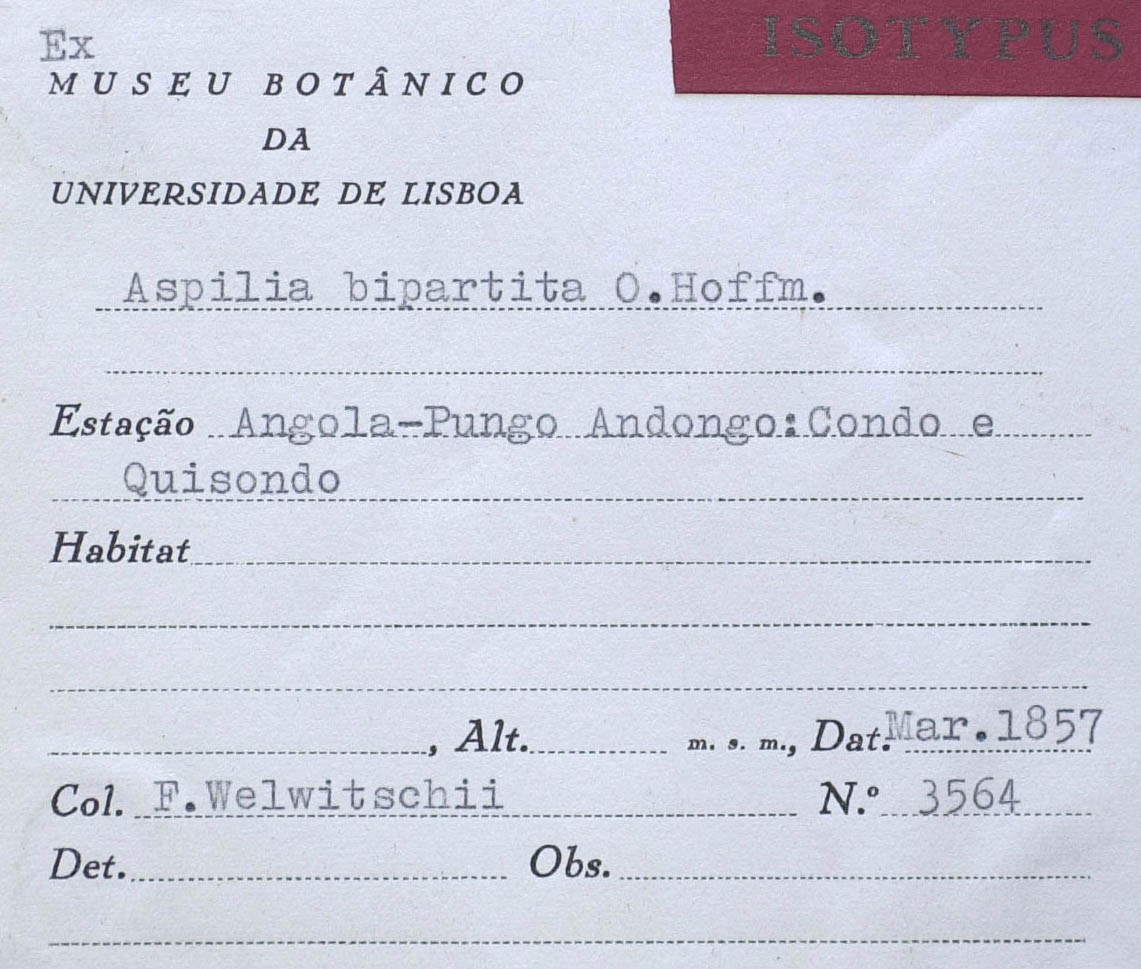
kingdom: Plantae
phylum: Tracheophyta
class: Magnoliopsida
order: Asterales
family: Asteraceae
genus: Aspilia
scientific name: Aspilia bipartita
